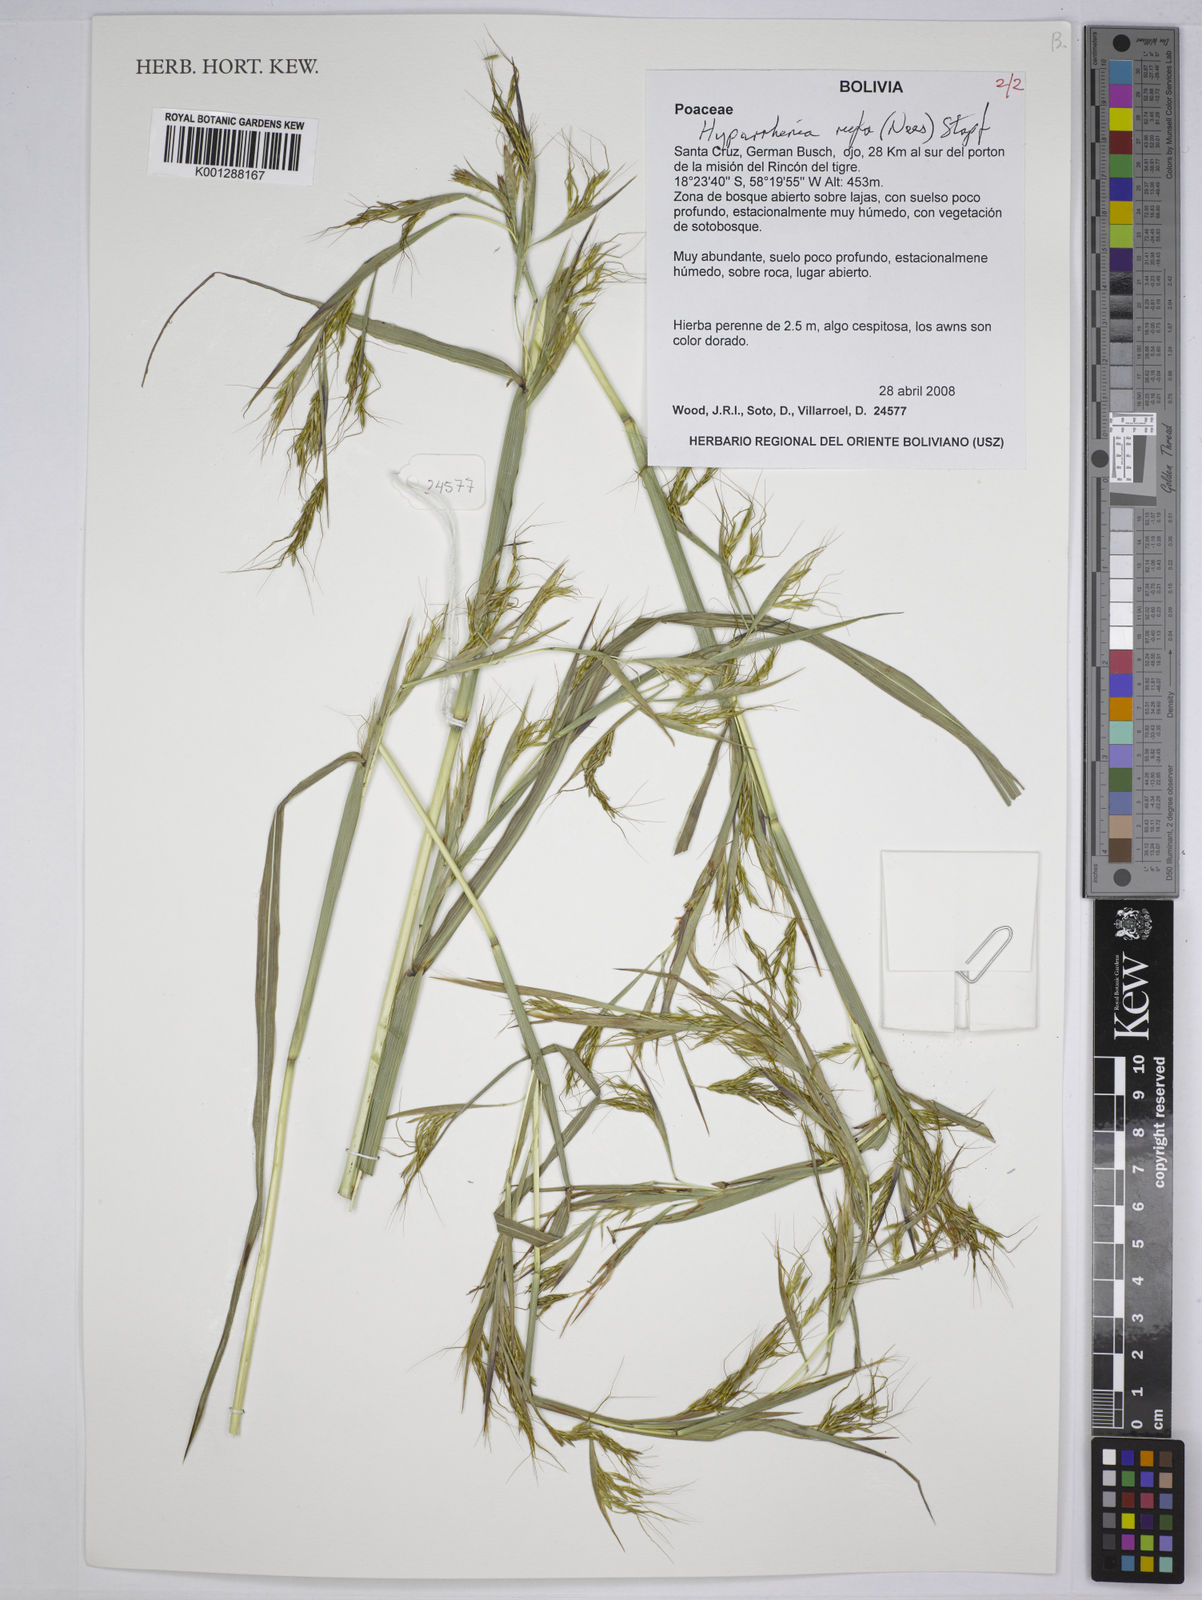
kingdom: Plantae
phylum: Tracheophyta
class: Liliopsida
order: Poales
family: Poaceae
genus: Hyparrhenia
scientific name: Hyparrhenia rufa
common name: Jaraguagrass
